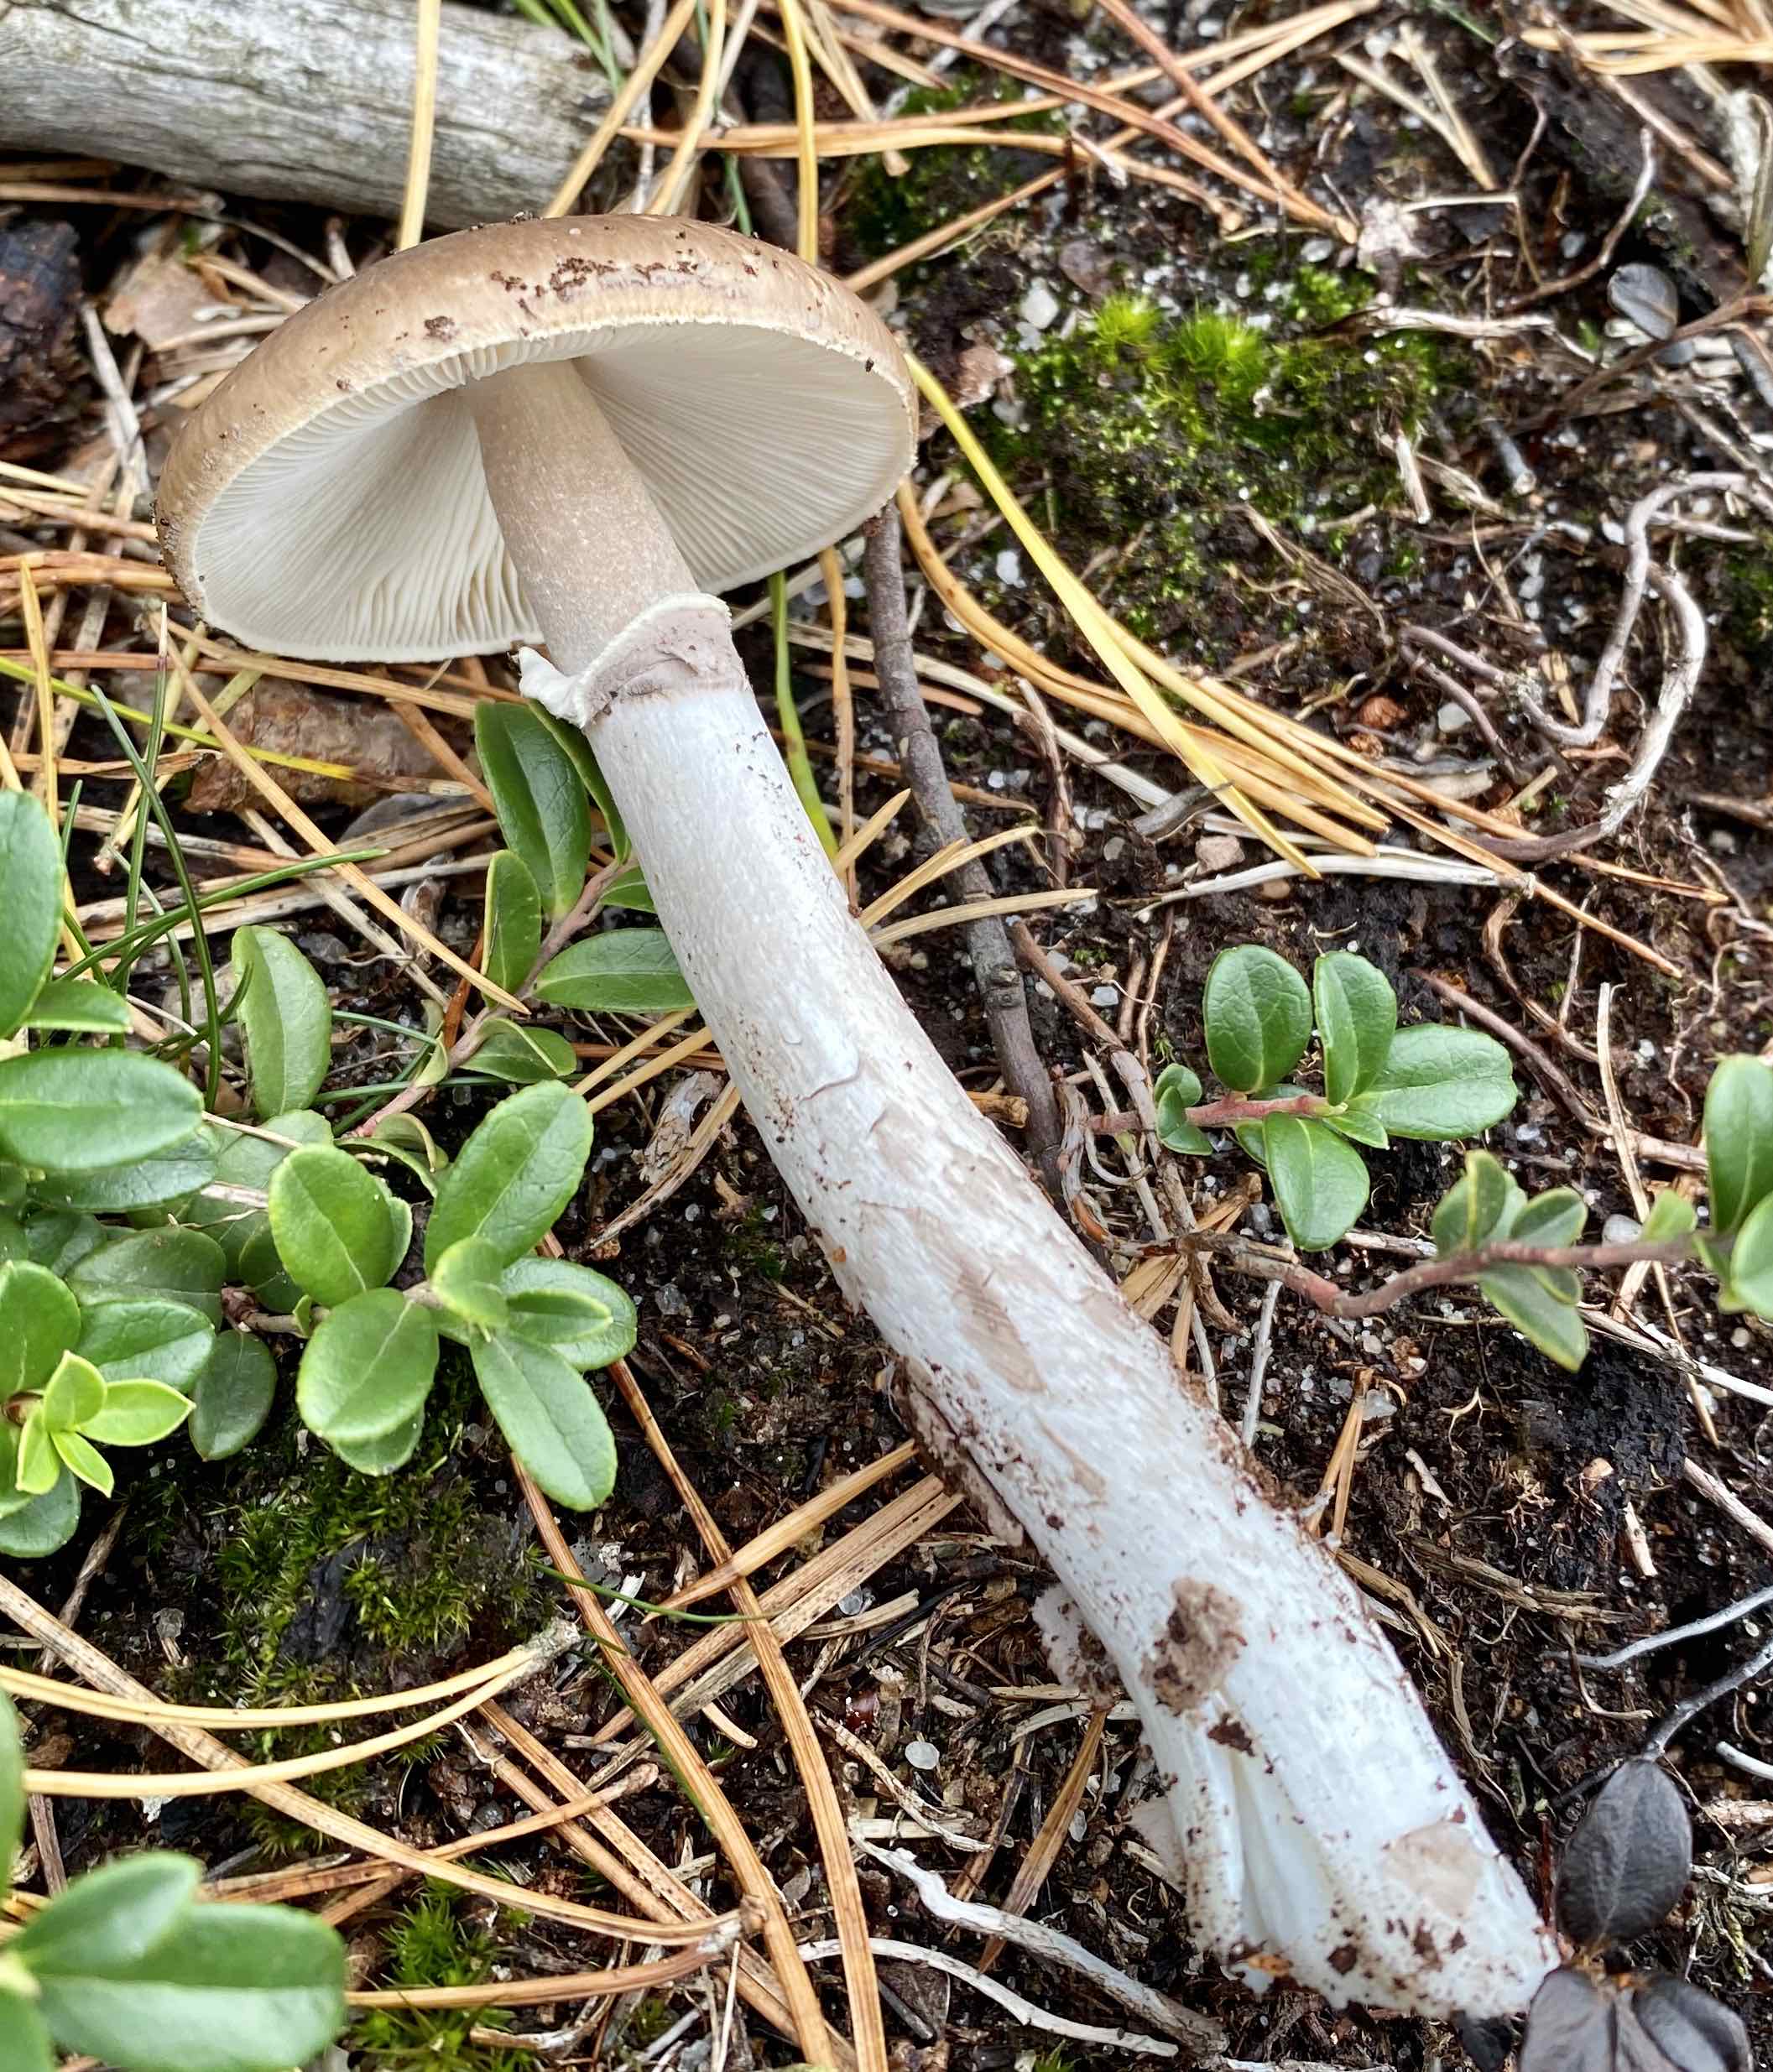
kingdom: Fungi
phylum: Basidiomycota
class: Agaricomycetes
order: Agaricales
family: Amanitaceae
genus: Amanita
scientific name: Amanita porphyria
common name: porfyr-fluesvamp
